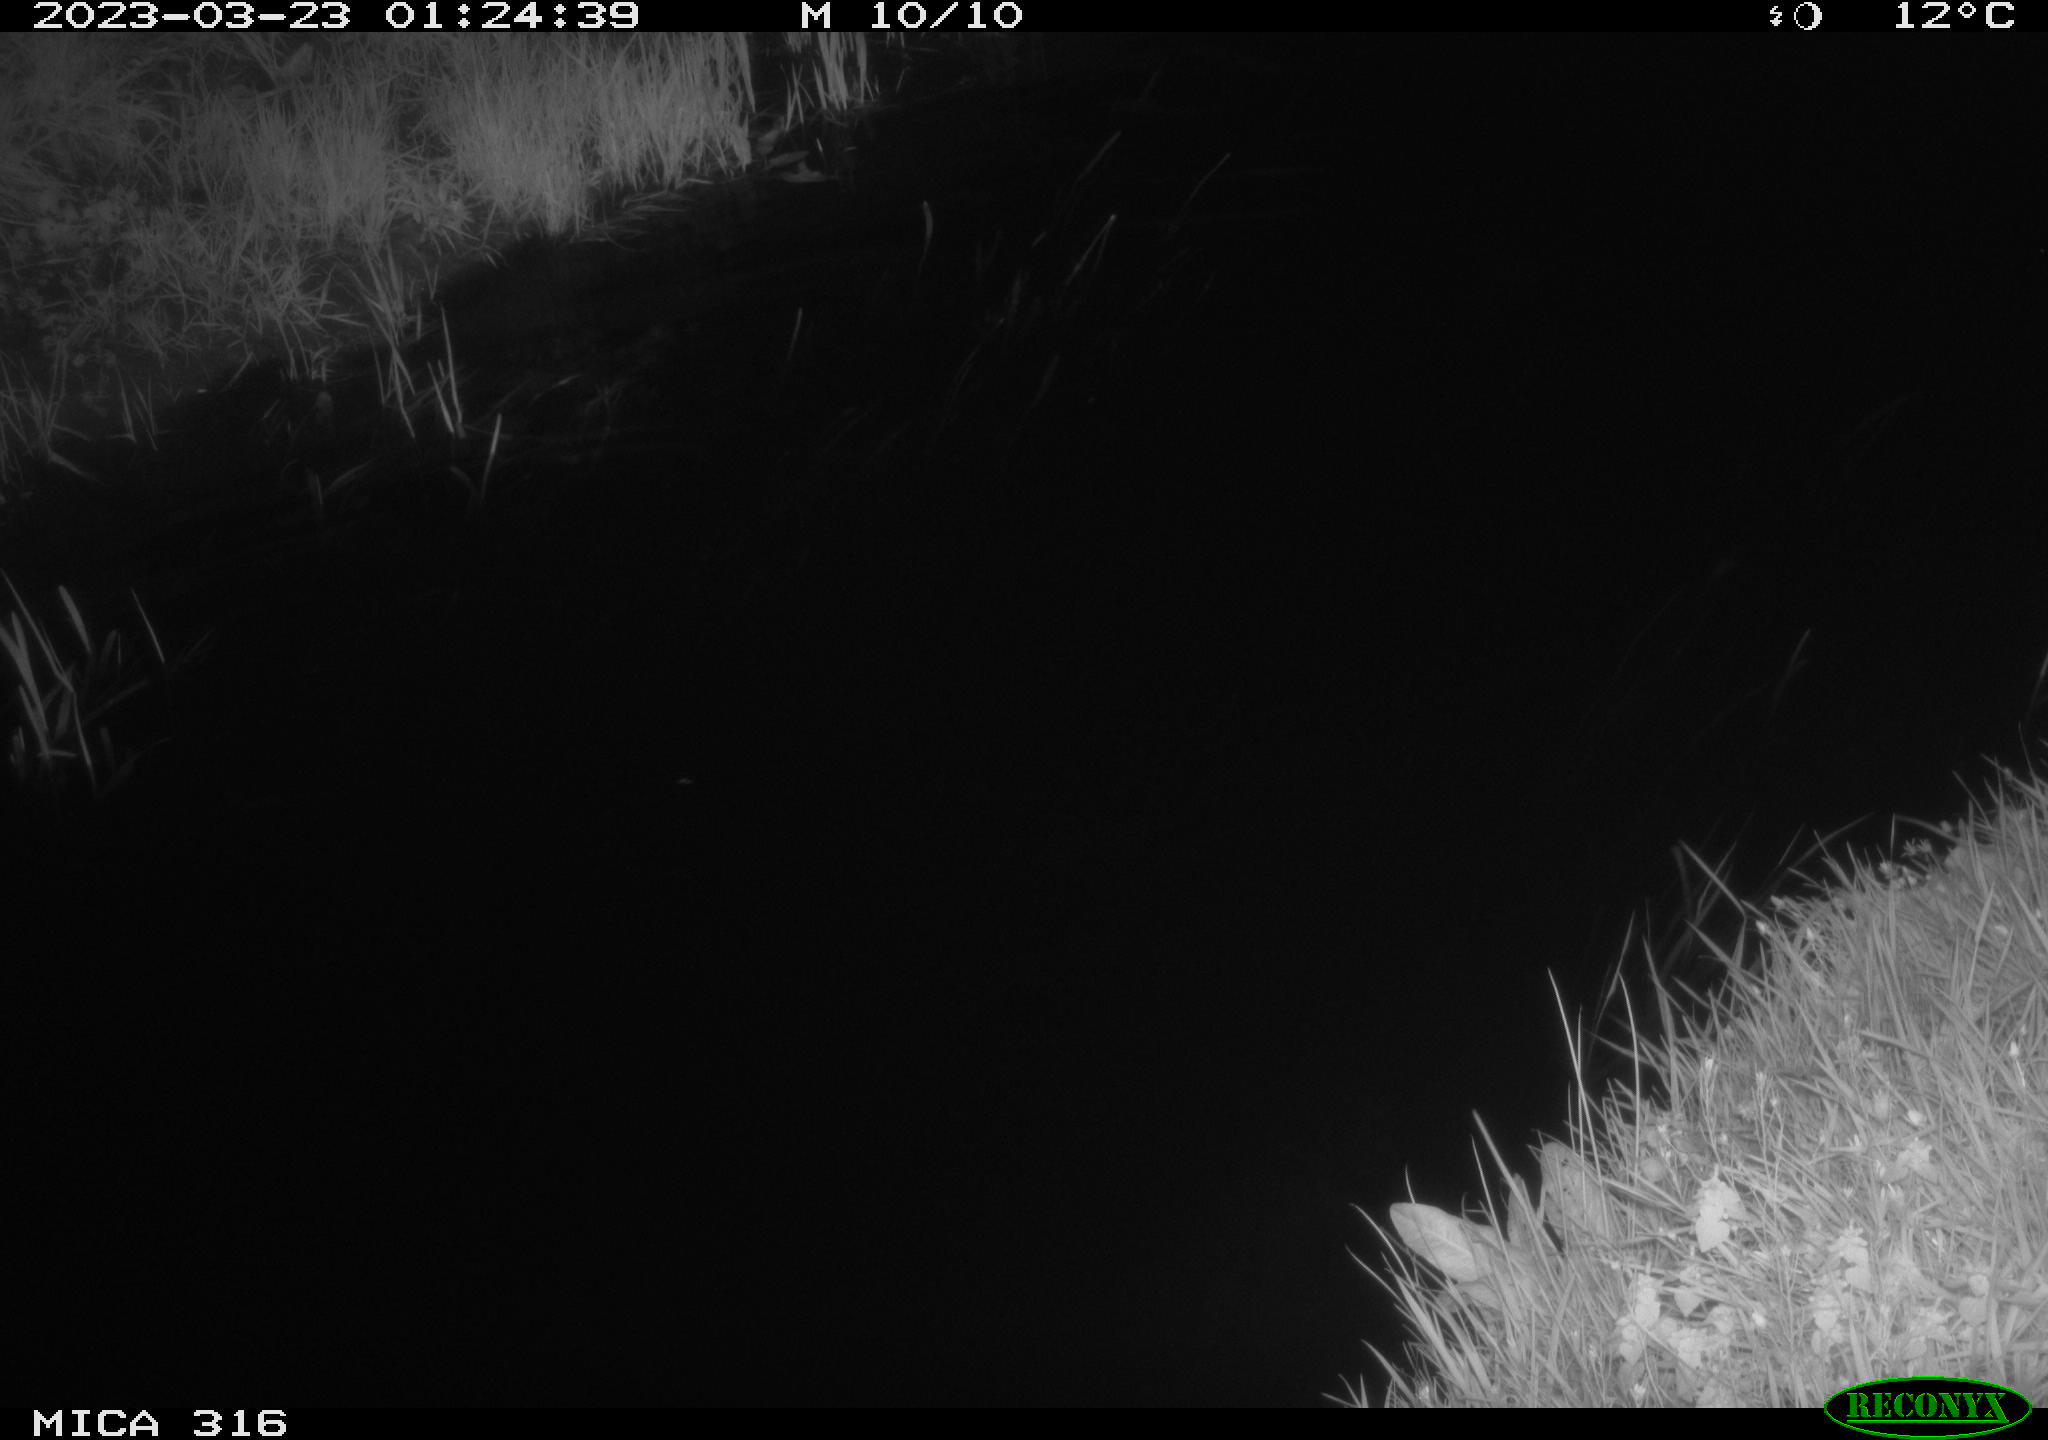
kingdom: Animalia
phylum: Chordata
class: Aves
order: Anseriformes
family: Anatidae
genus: Anas
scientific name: Anas
